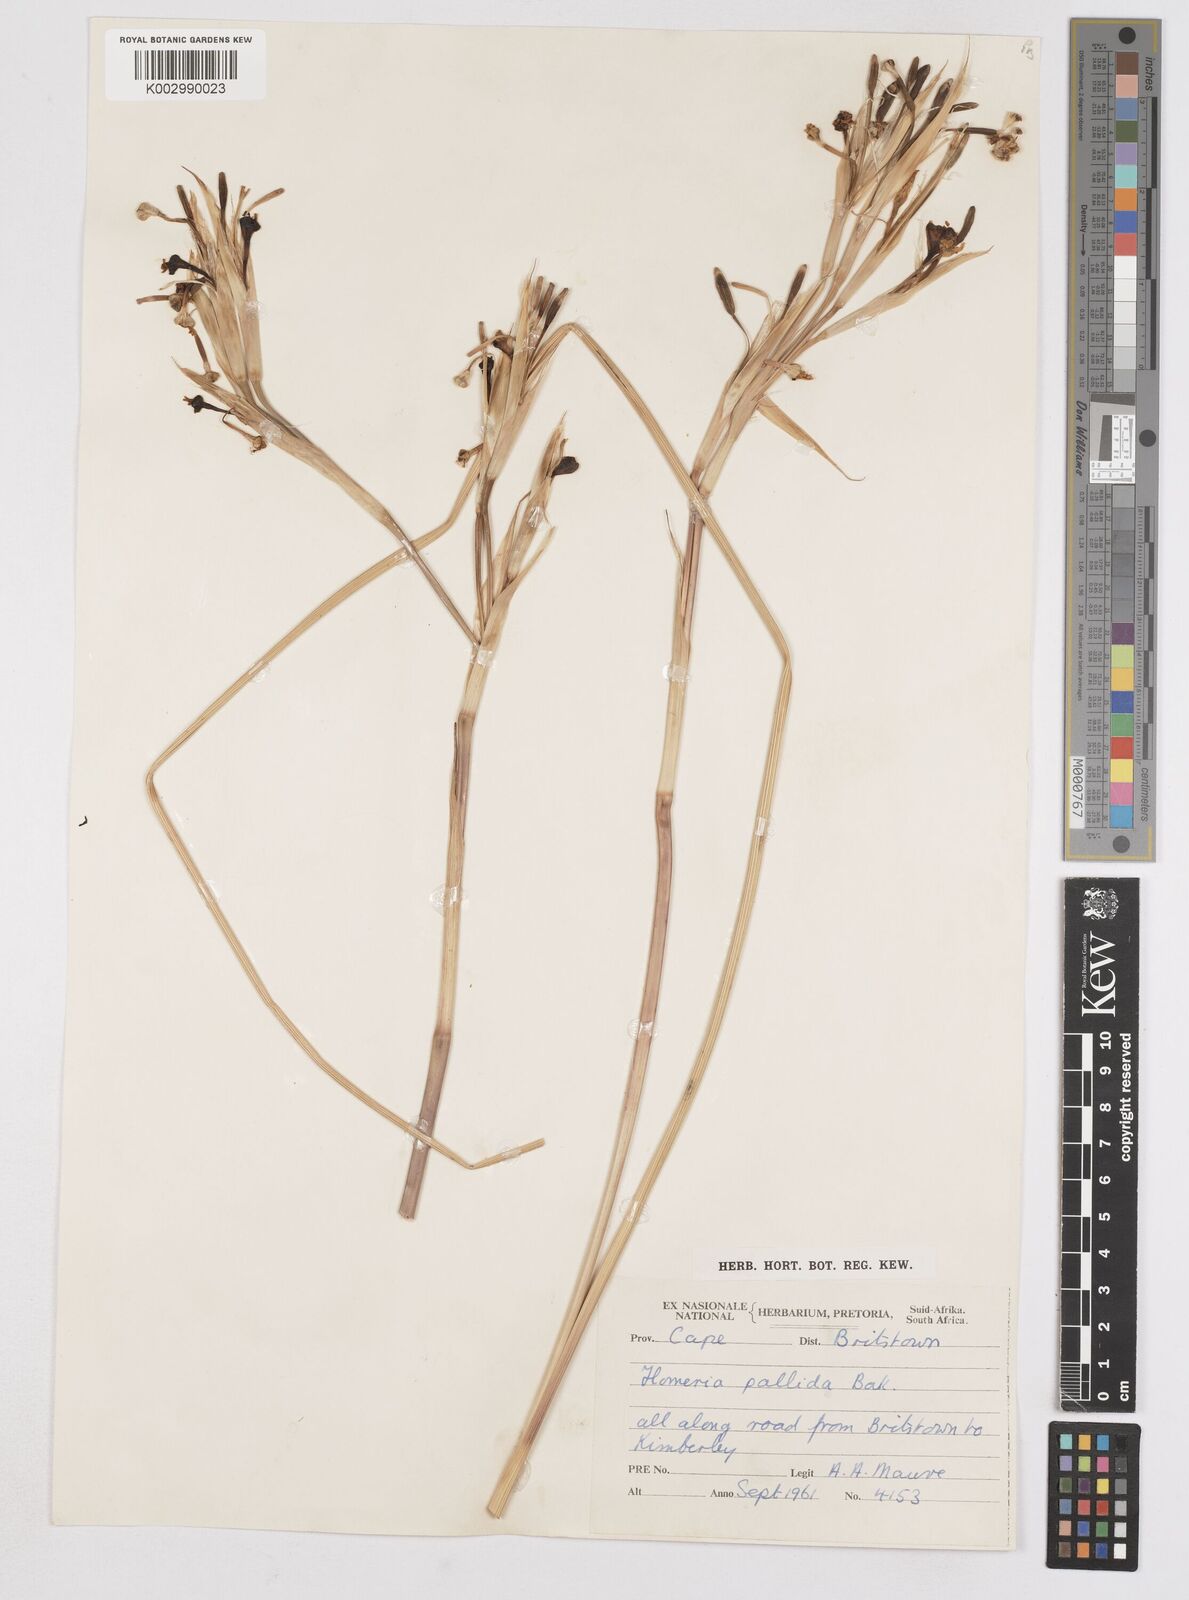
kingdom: Plantae
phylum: Tracheophyta
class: Liliopsida
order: Asparagales
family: Iridaceae
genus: Moraea
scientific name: Moraea pallida
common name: Yellow tulp
